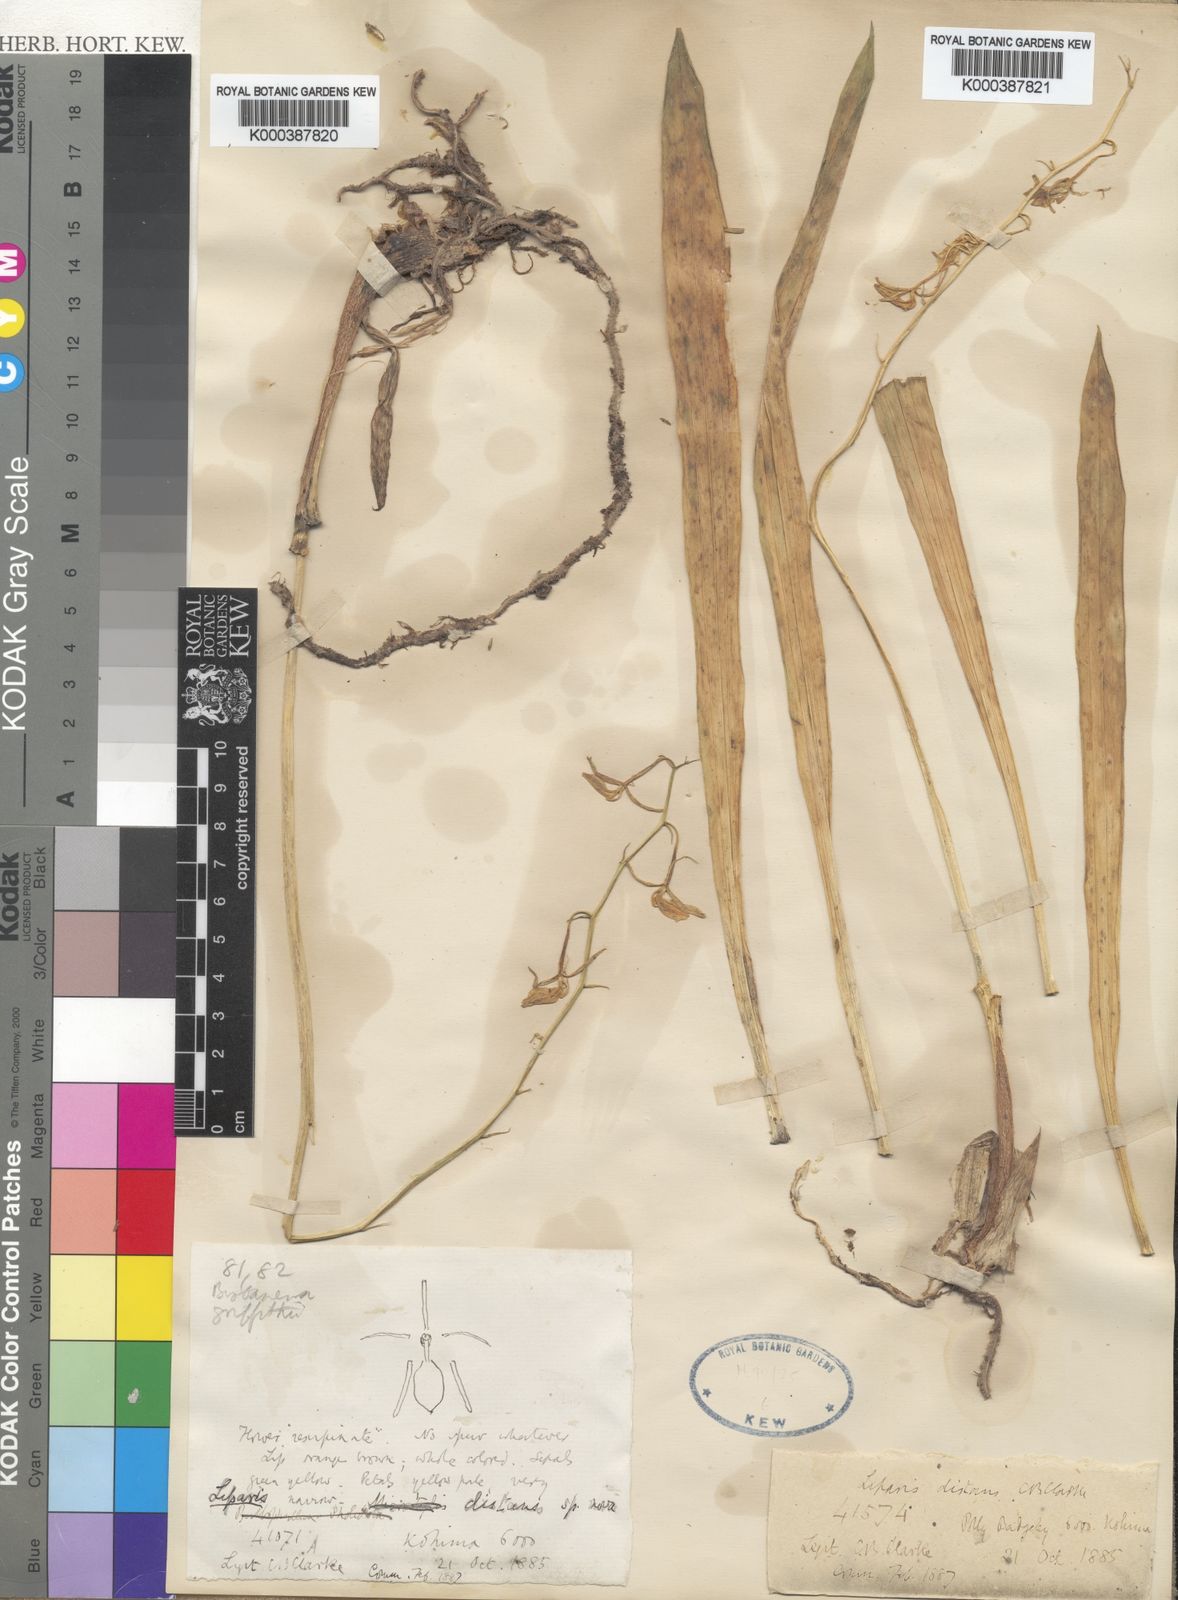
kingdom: Plantae
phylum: Tracheophyta
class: Liliopsida
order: Asparagales
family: Orchidaceae
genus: Liparis
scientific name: Liparis distans
